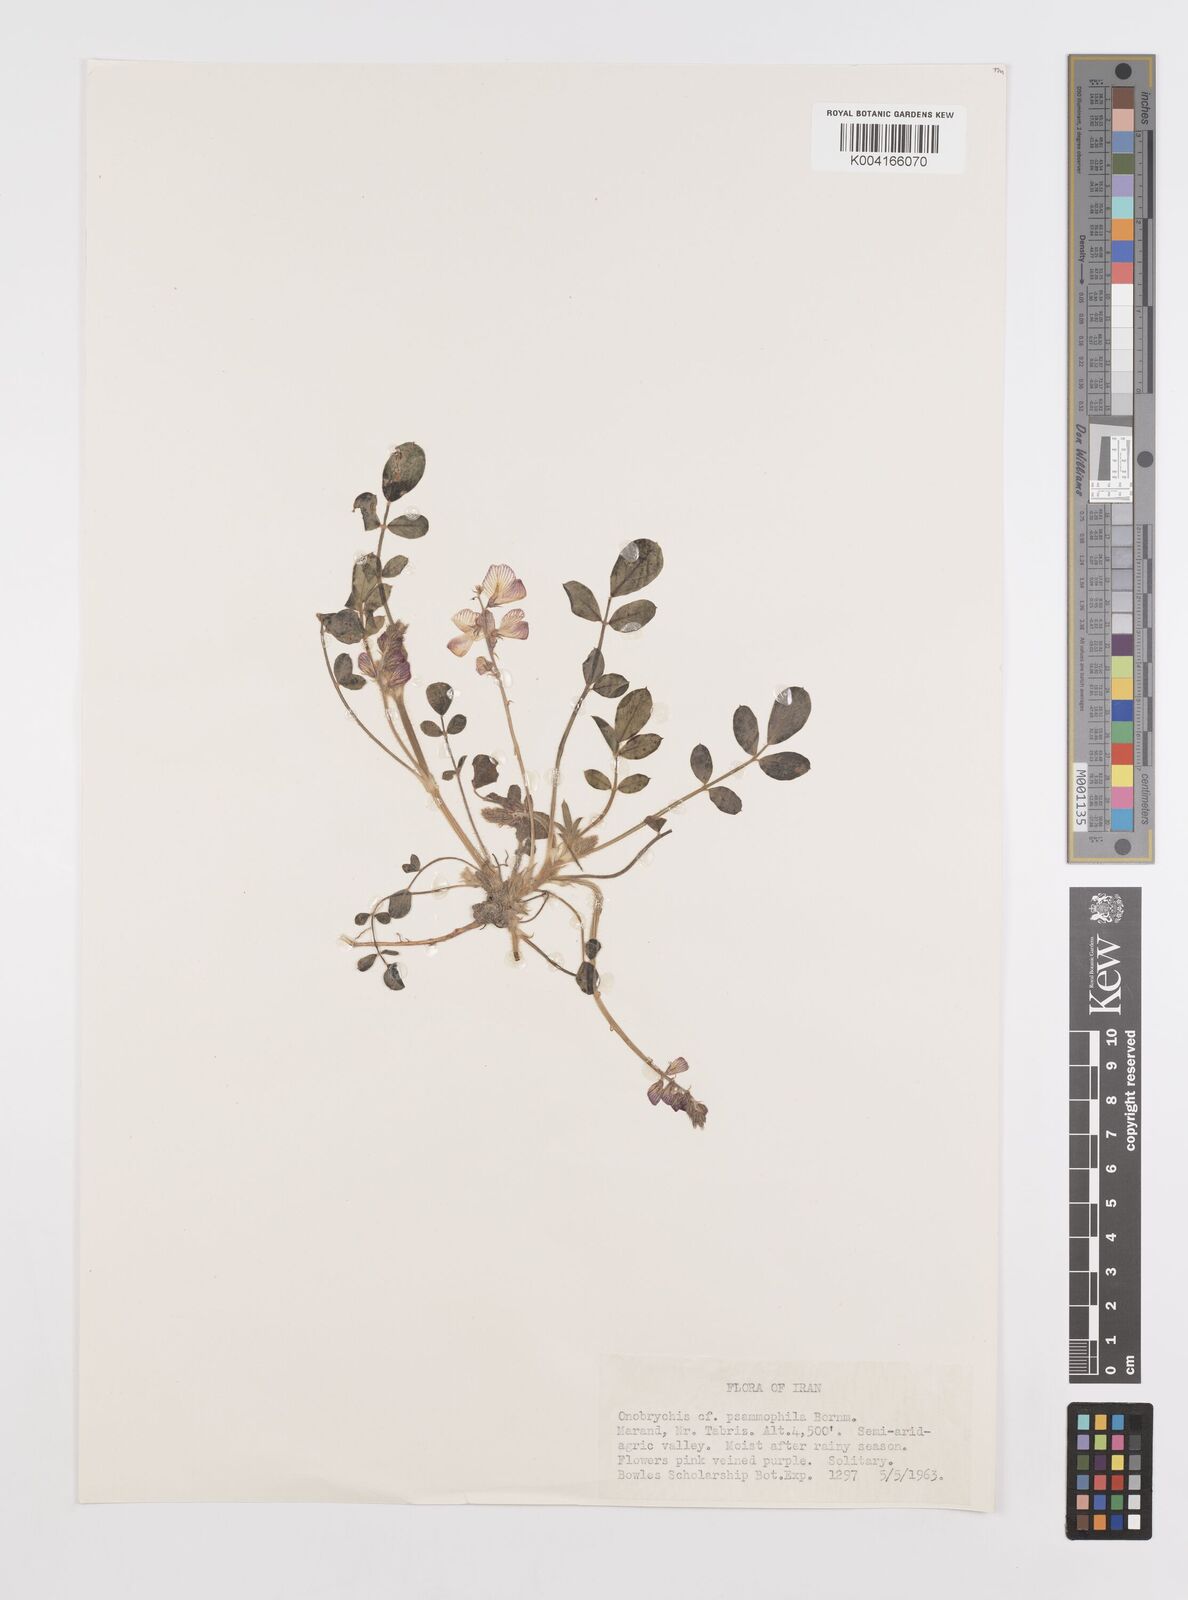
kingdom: Plantae
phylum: Tracheophyta
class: Magnoliopsida
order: Fabales
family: Fabaceae
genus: Onobrychis
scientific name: Onobrychis aucheri
